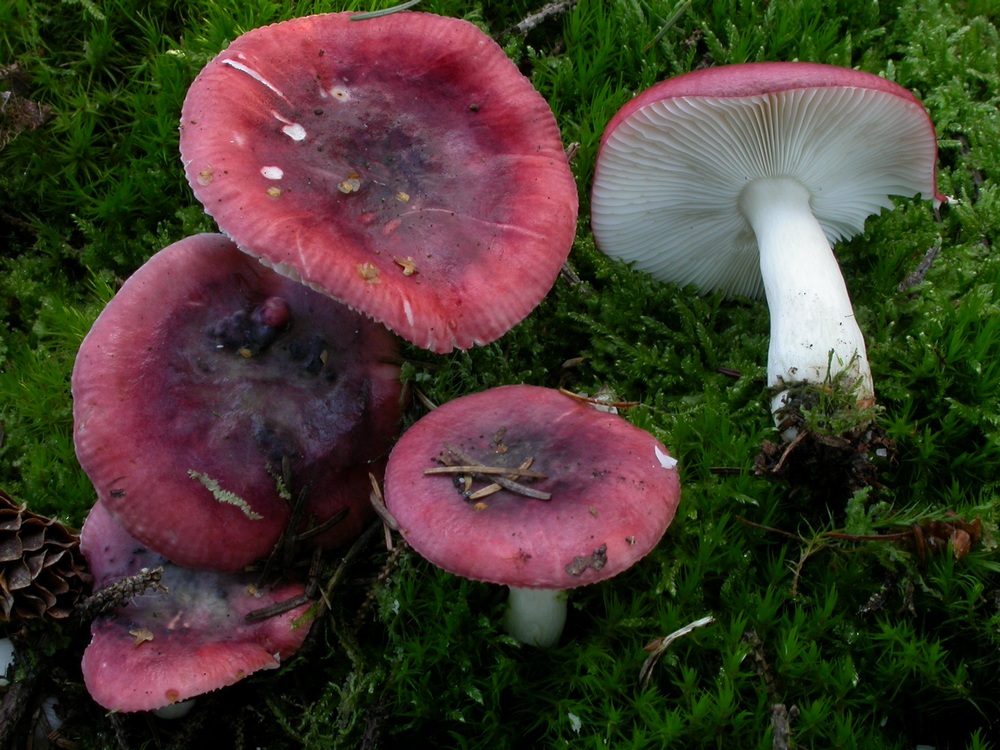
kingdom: Fungi
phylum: Basidiomycota
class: Agaricomycetes
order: Russulales
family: Russulaceae
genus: Russula
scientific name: Russula atrorubens
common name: sortrød skørhat
